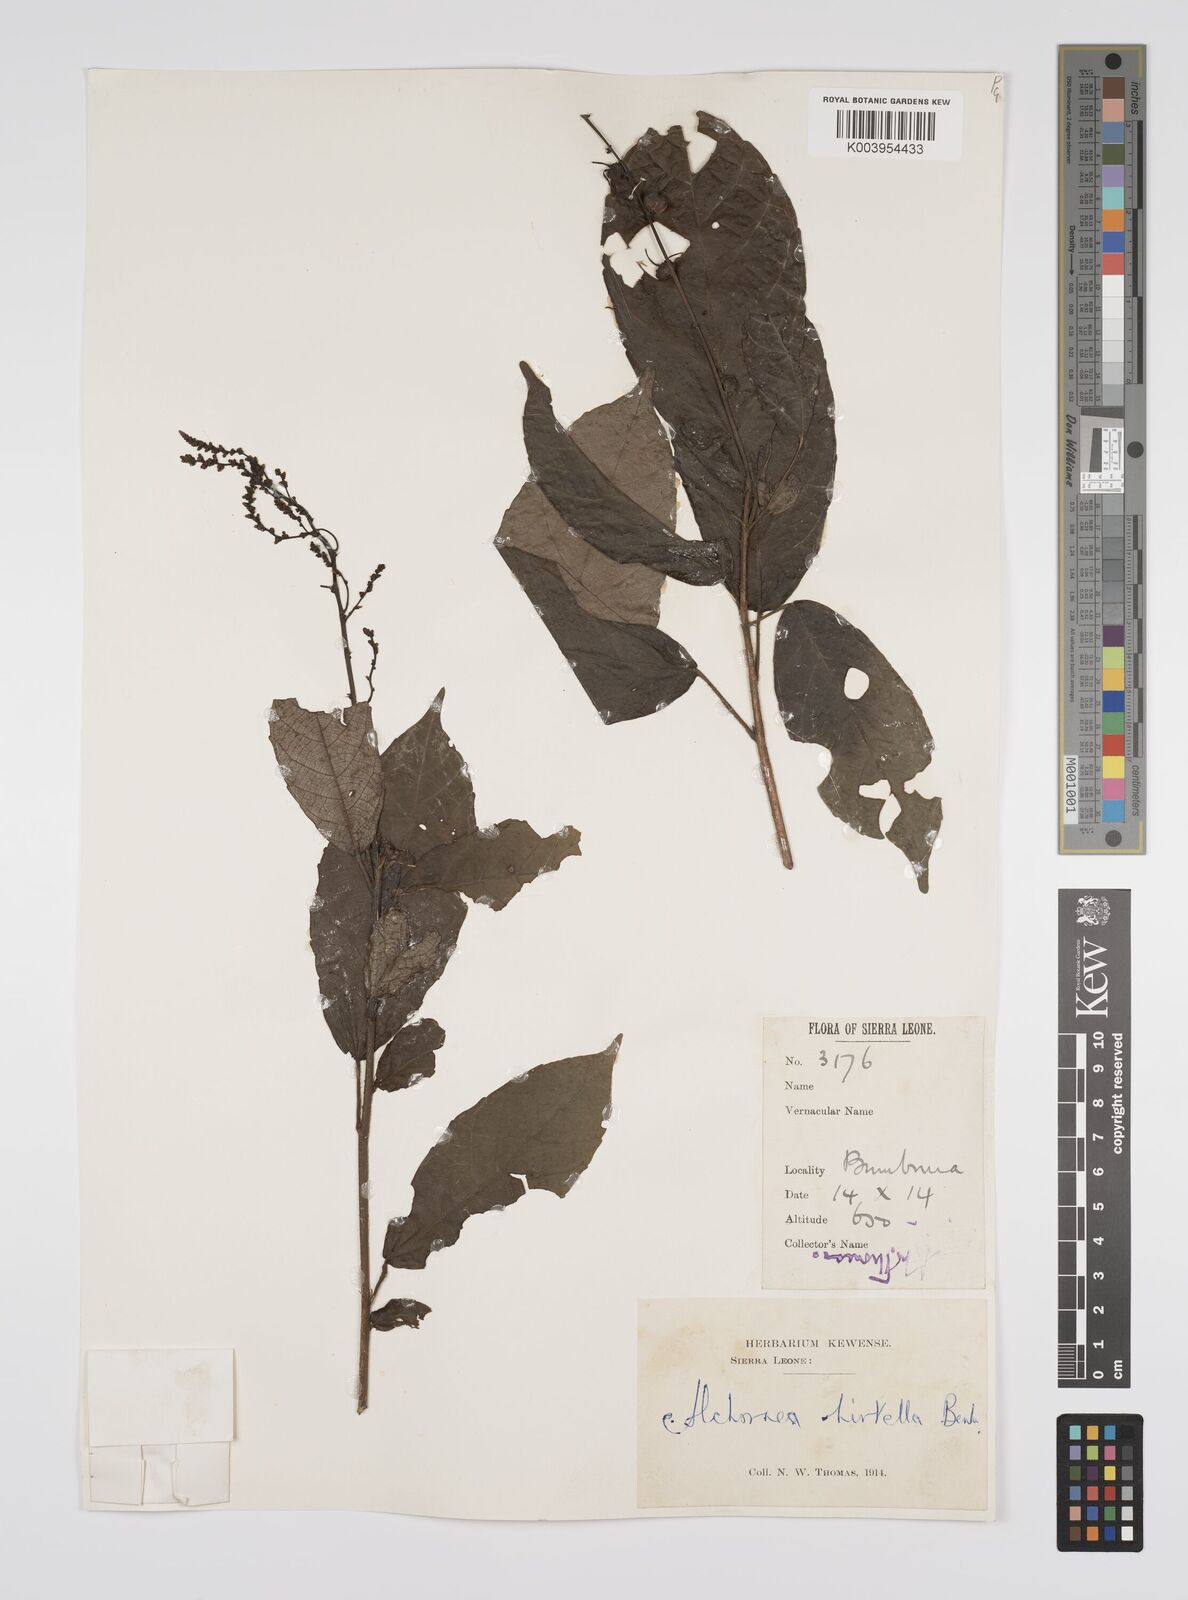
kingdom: Plantae
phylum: Tracheophyta
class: Magnoliopsida
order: Malpighiales
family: Euphorbiaceae
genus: Alchornea
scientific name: Alchornea hirtella
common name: Forest bead-string
